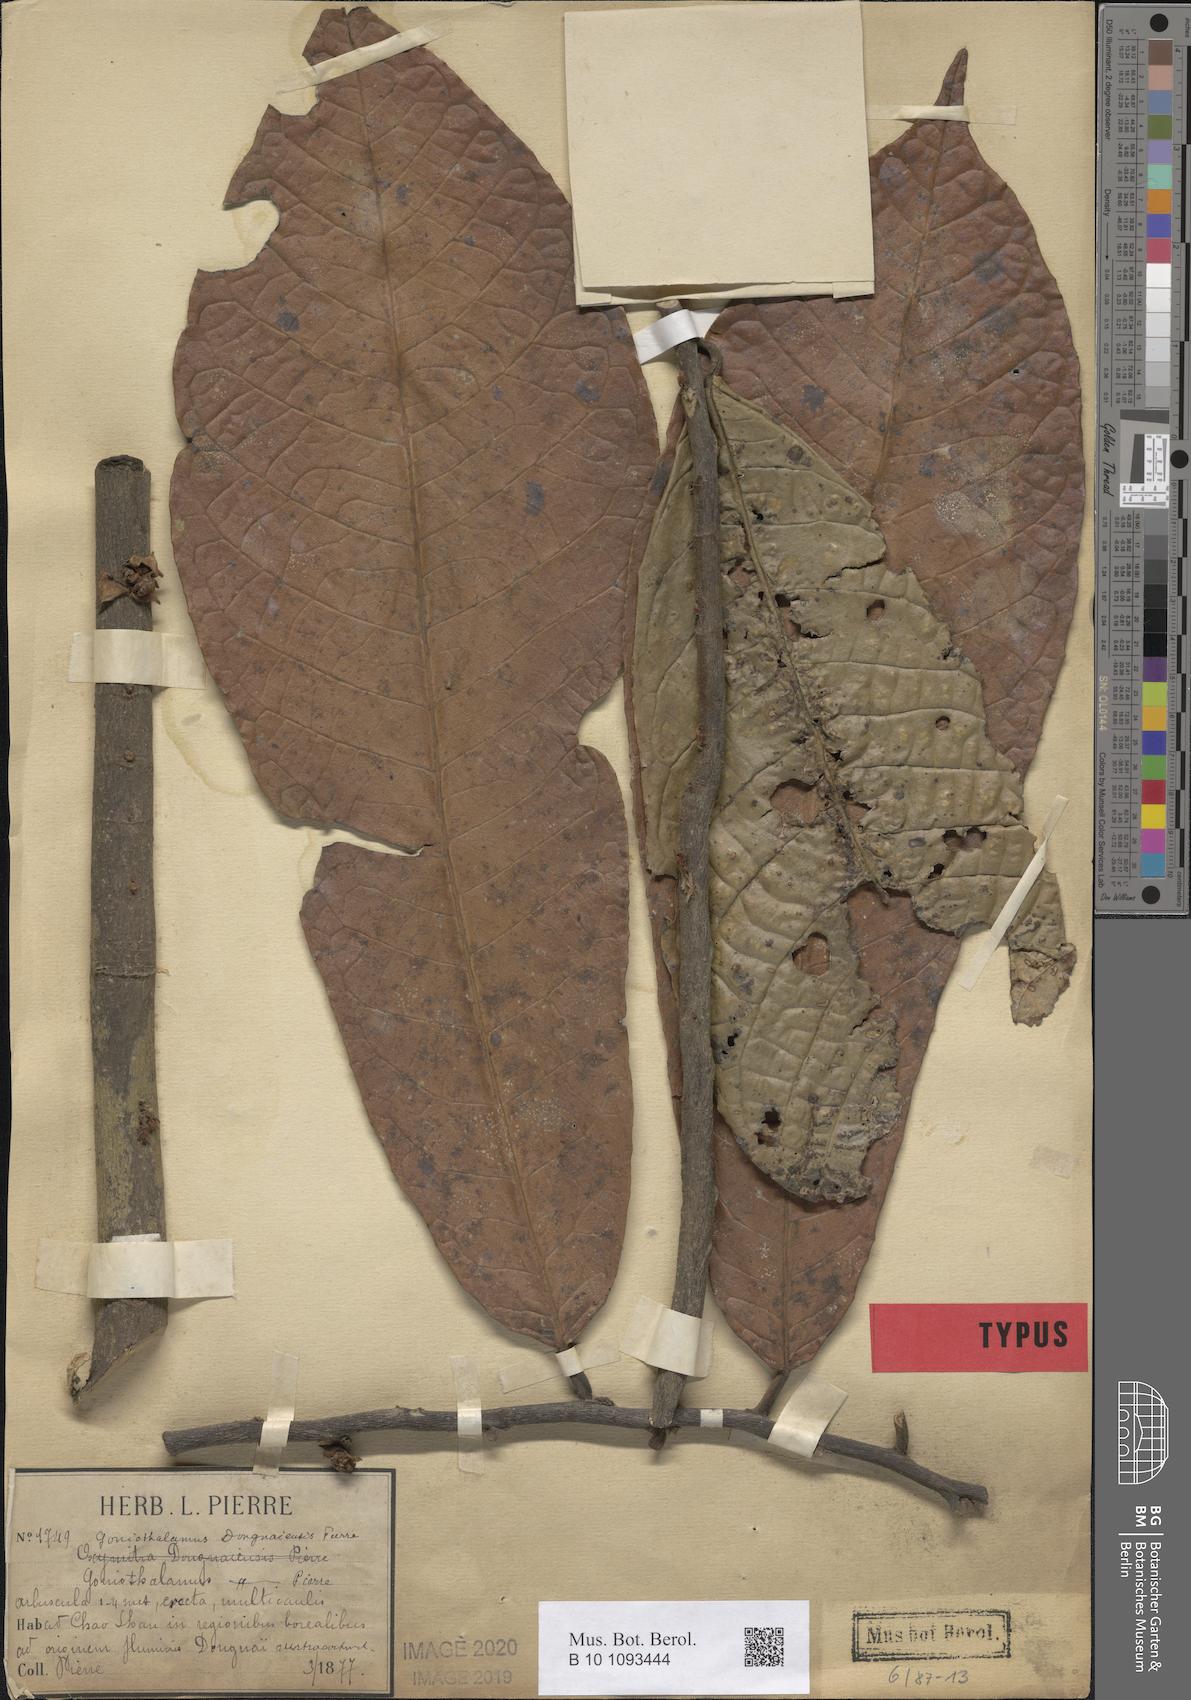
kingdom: Plantae
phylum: Tracheophyta
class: Magnoliopsida
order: Magnoliales
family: Annonaceae
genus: Goniothalamus
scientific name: Goniothalamus donnaiensis
